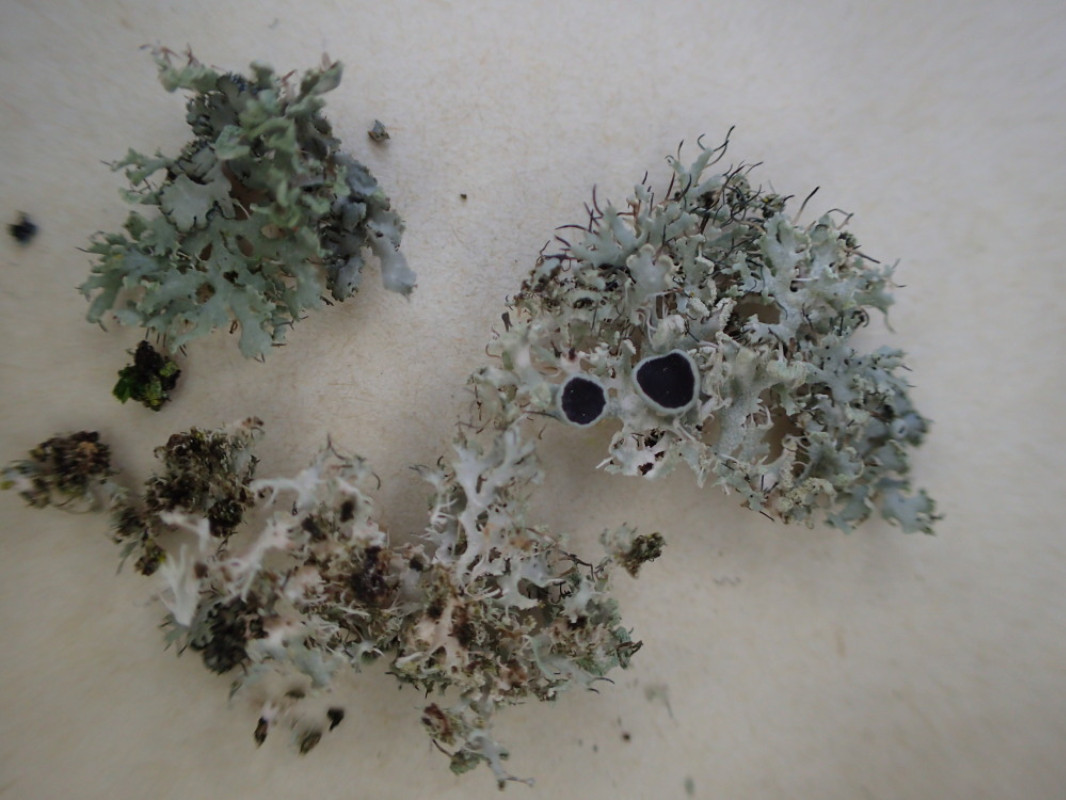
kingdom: Fungi
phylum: Ascomycota
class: Lecanoromycetes
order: Caliciales
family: Physciaceae
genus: Physcia
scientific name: Physcia tenella
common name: spæd rosetlav
